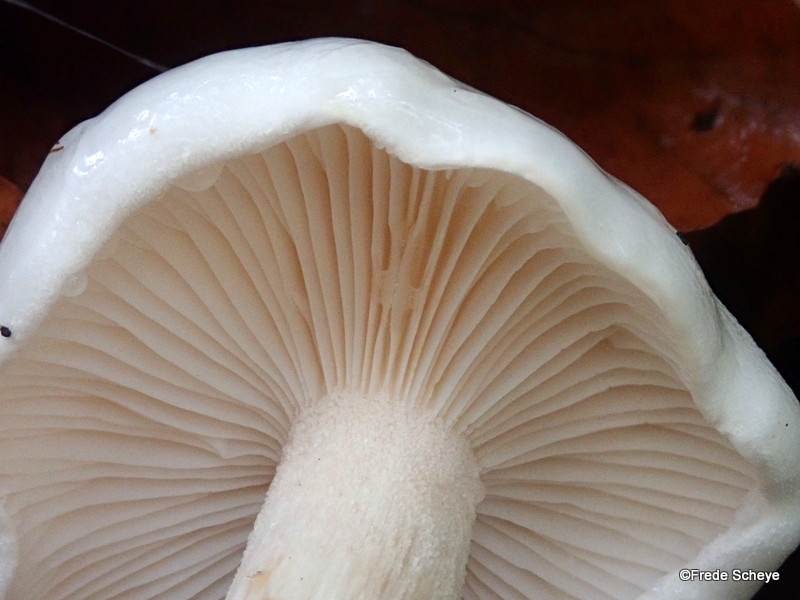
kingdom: Fungi
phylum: Basidiomycota
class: Agaricomycetes
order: Agaricales
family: Hygrophoraceae
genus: Hygrophorus
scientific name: Hygrophorus eburneus
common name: elfenbens-sneglehat
